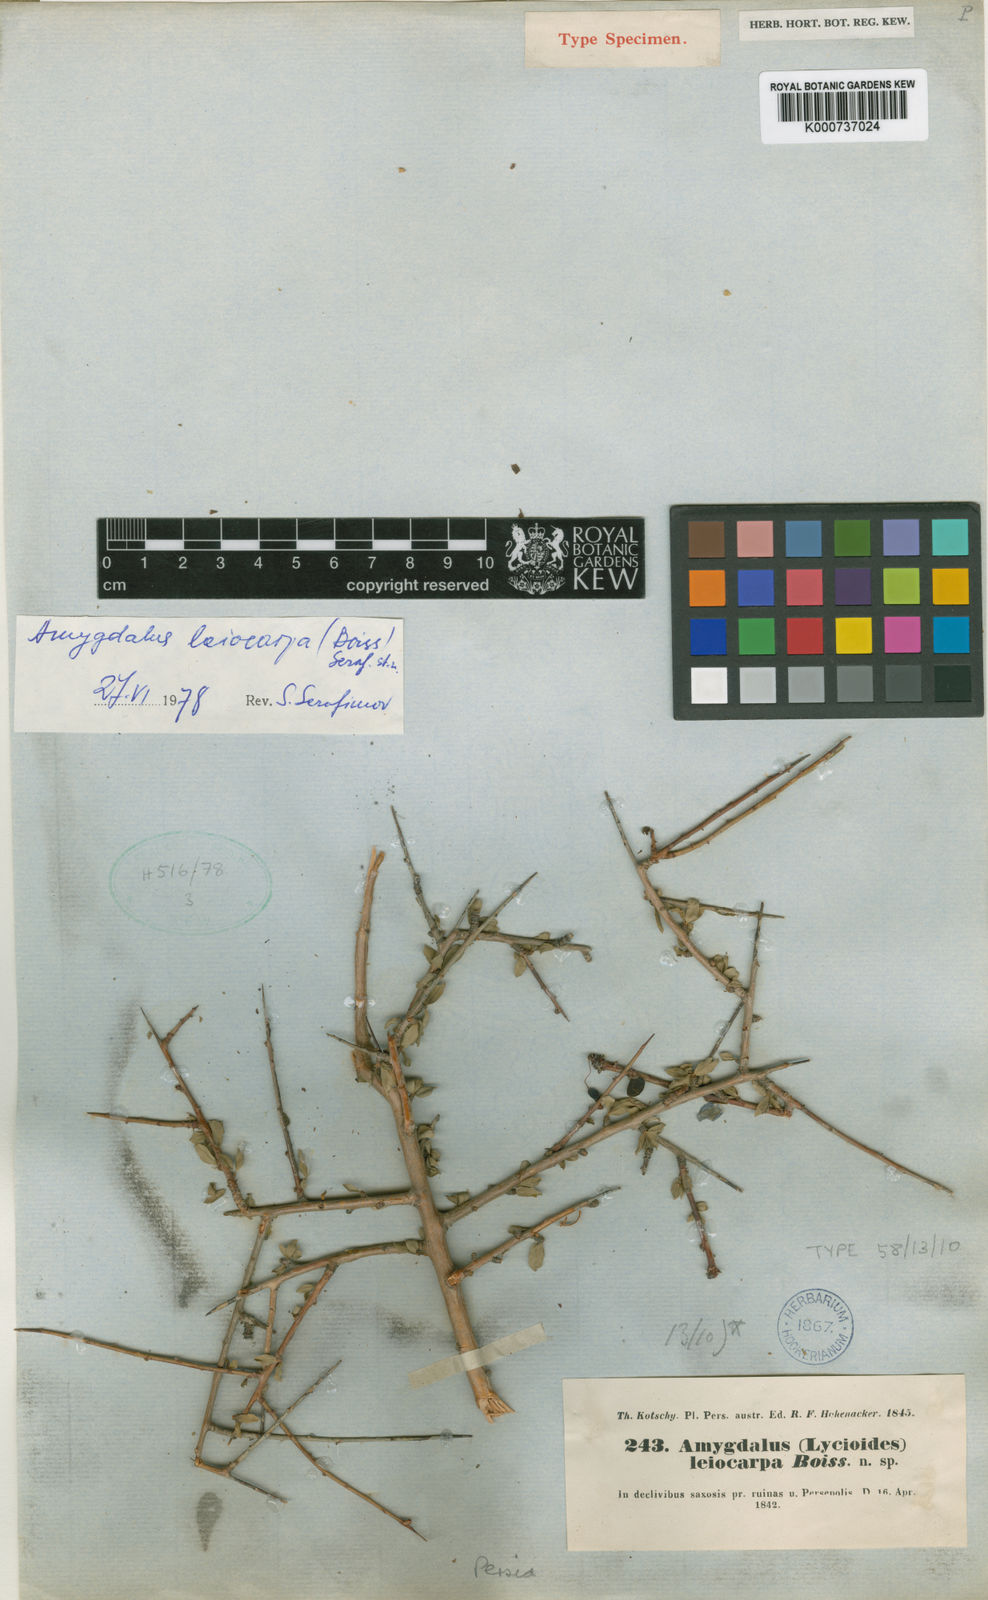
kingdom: Plantae
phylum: Tracheophyta
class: Magnoliopsida
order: Rosales
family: Rosaceae
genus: Prunus
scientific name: Prunus elaeagnifolia
